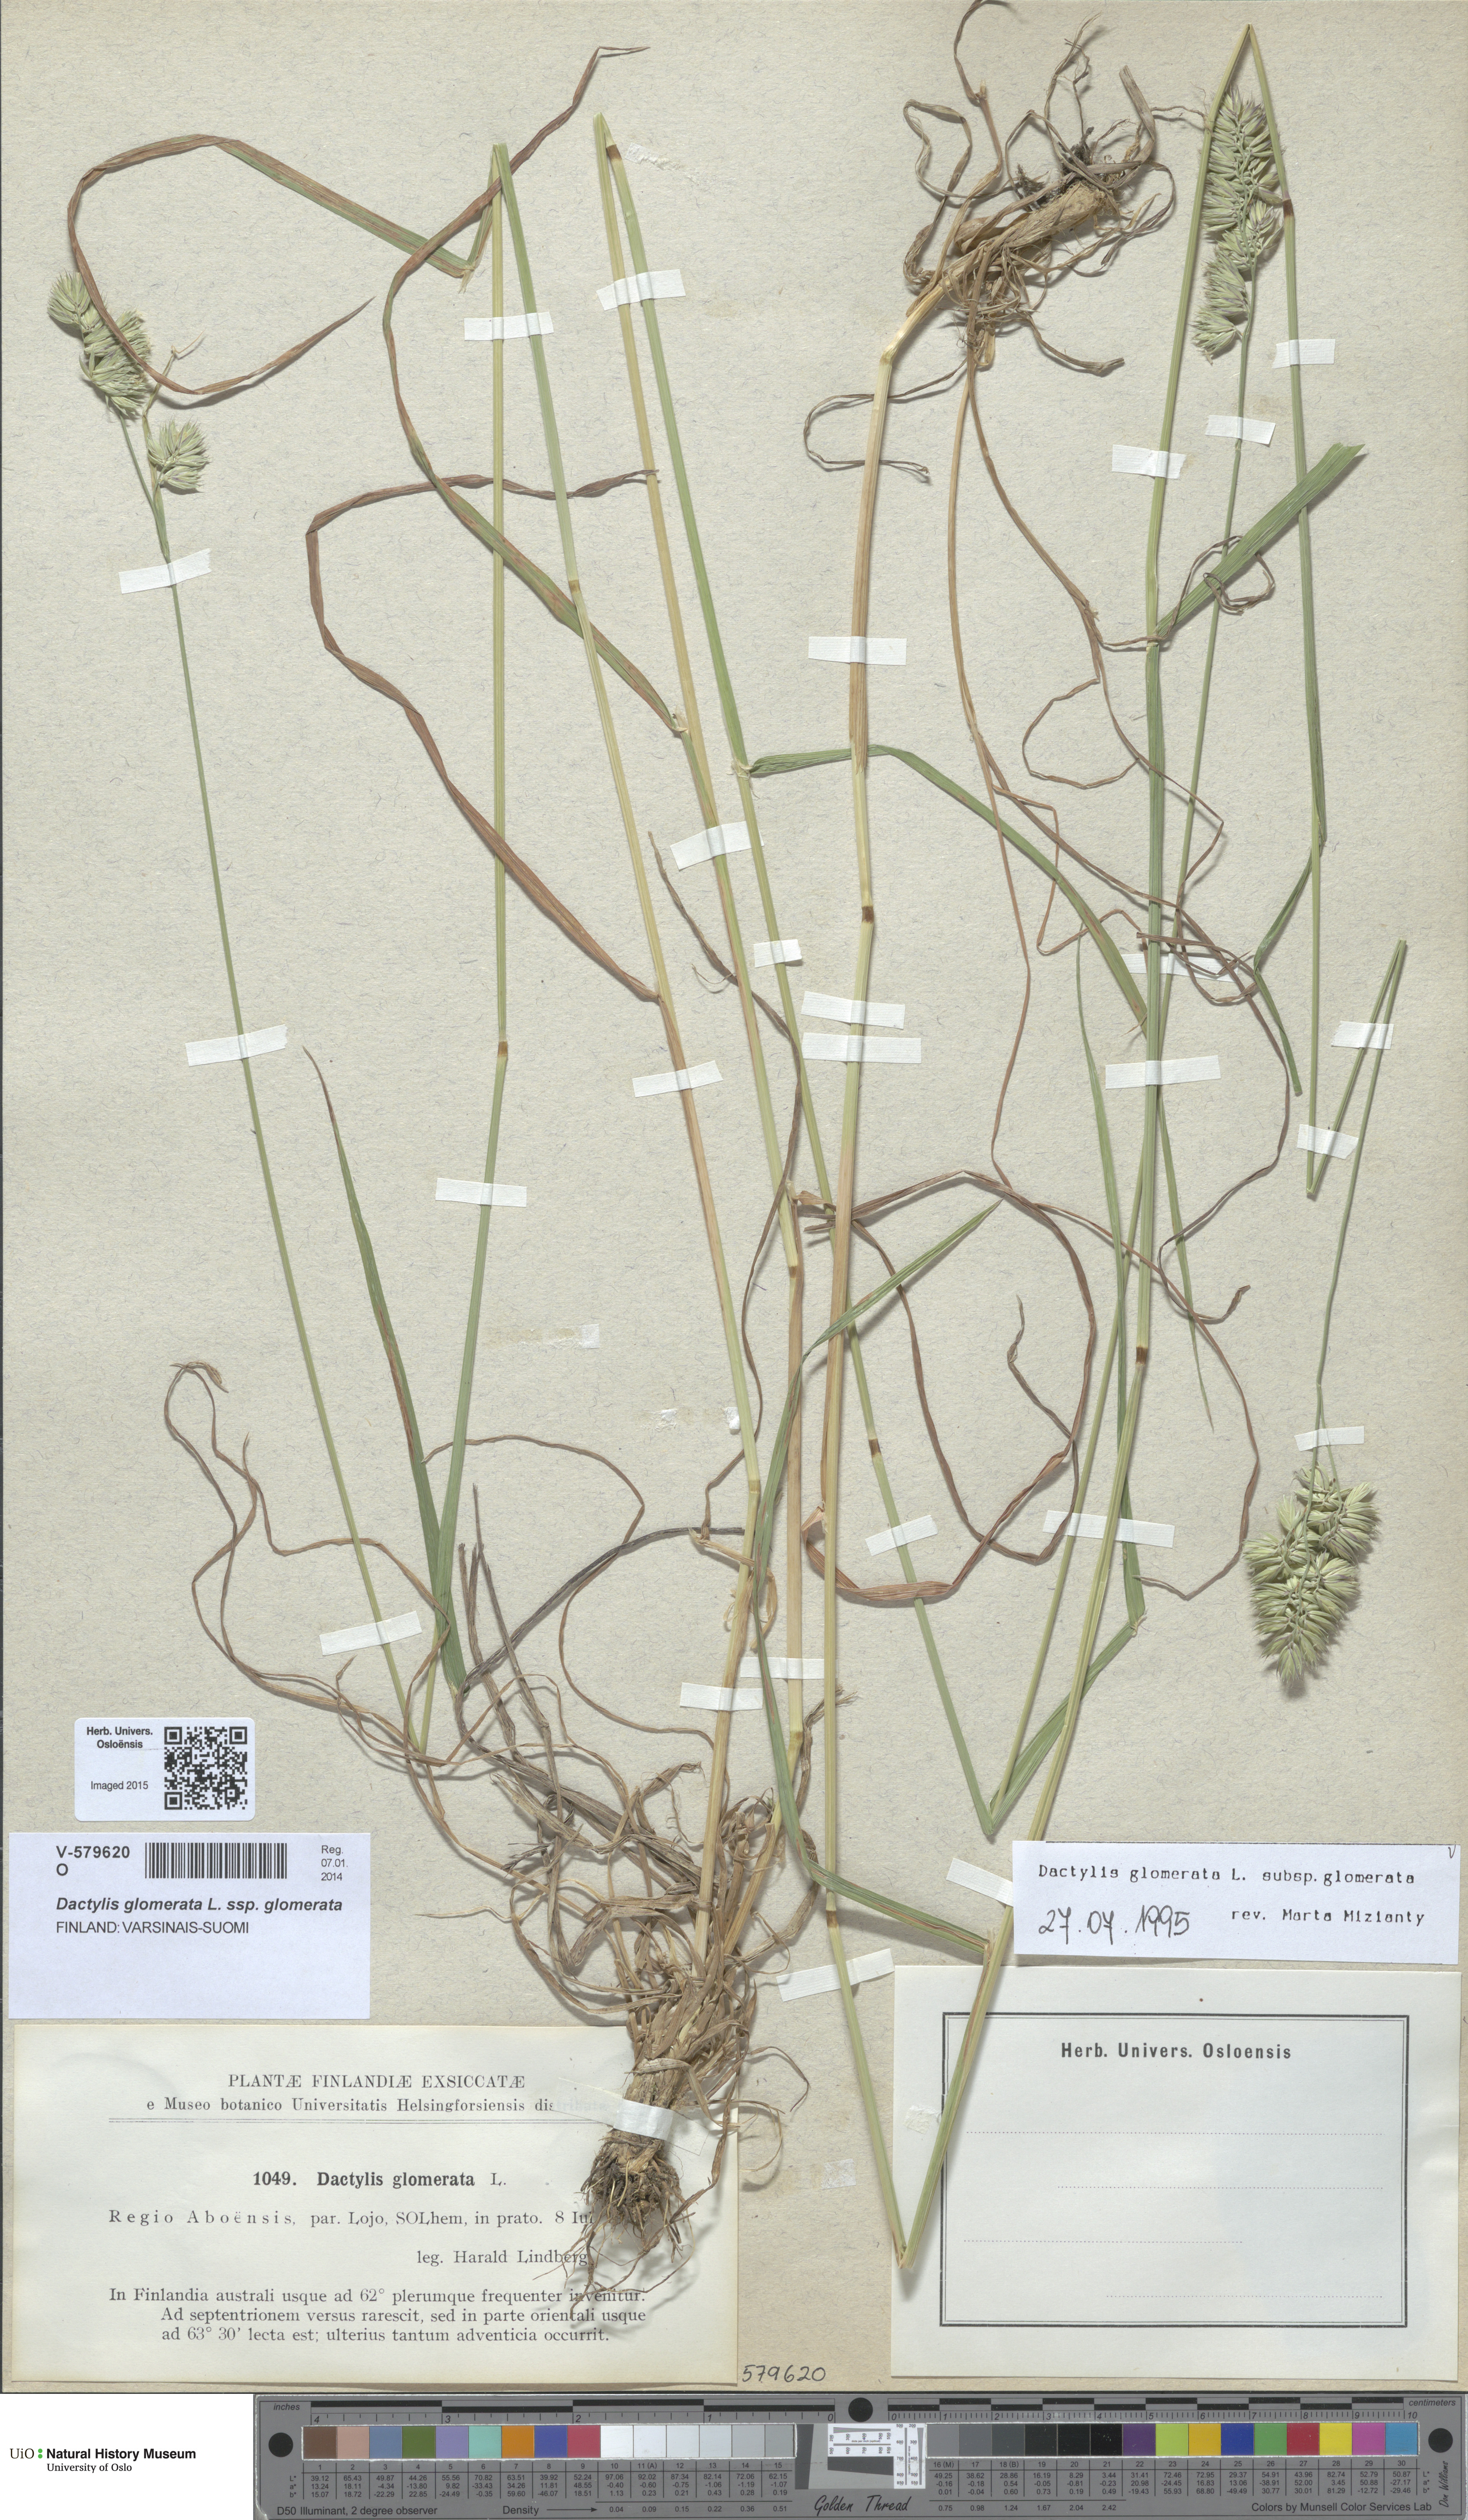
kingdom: Plantae
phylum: Tracheophyta
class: Liliopsida
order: Poales
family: Poaceae
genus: Dactylis
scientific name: Dactylis glomerata
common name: Orchardgrass
